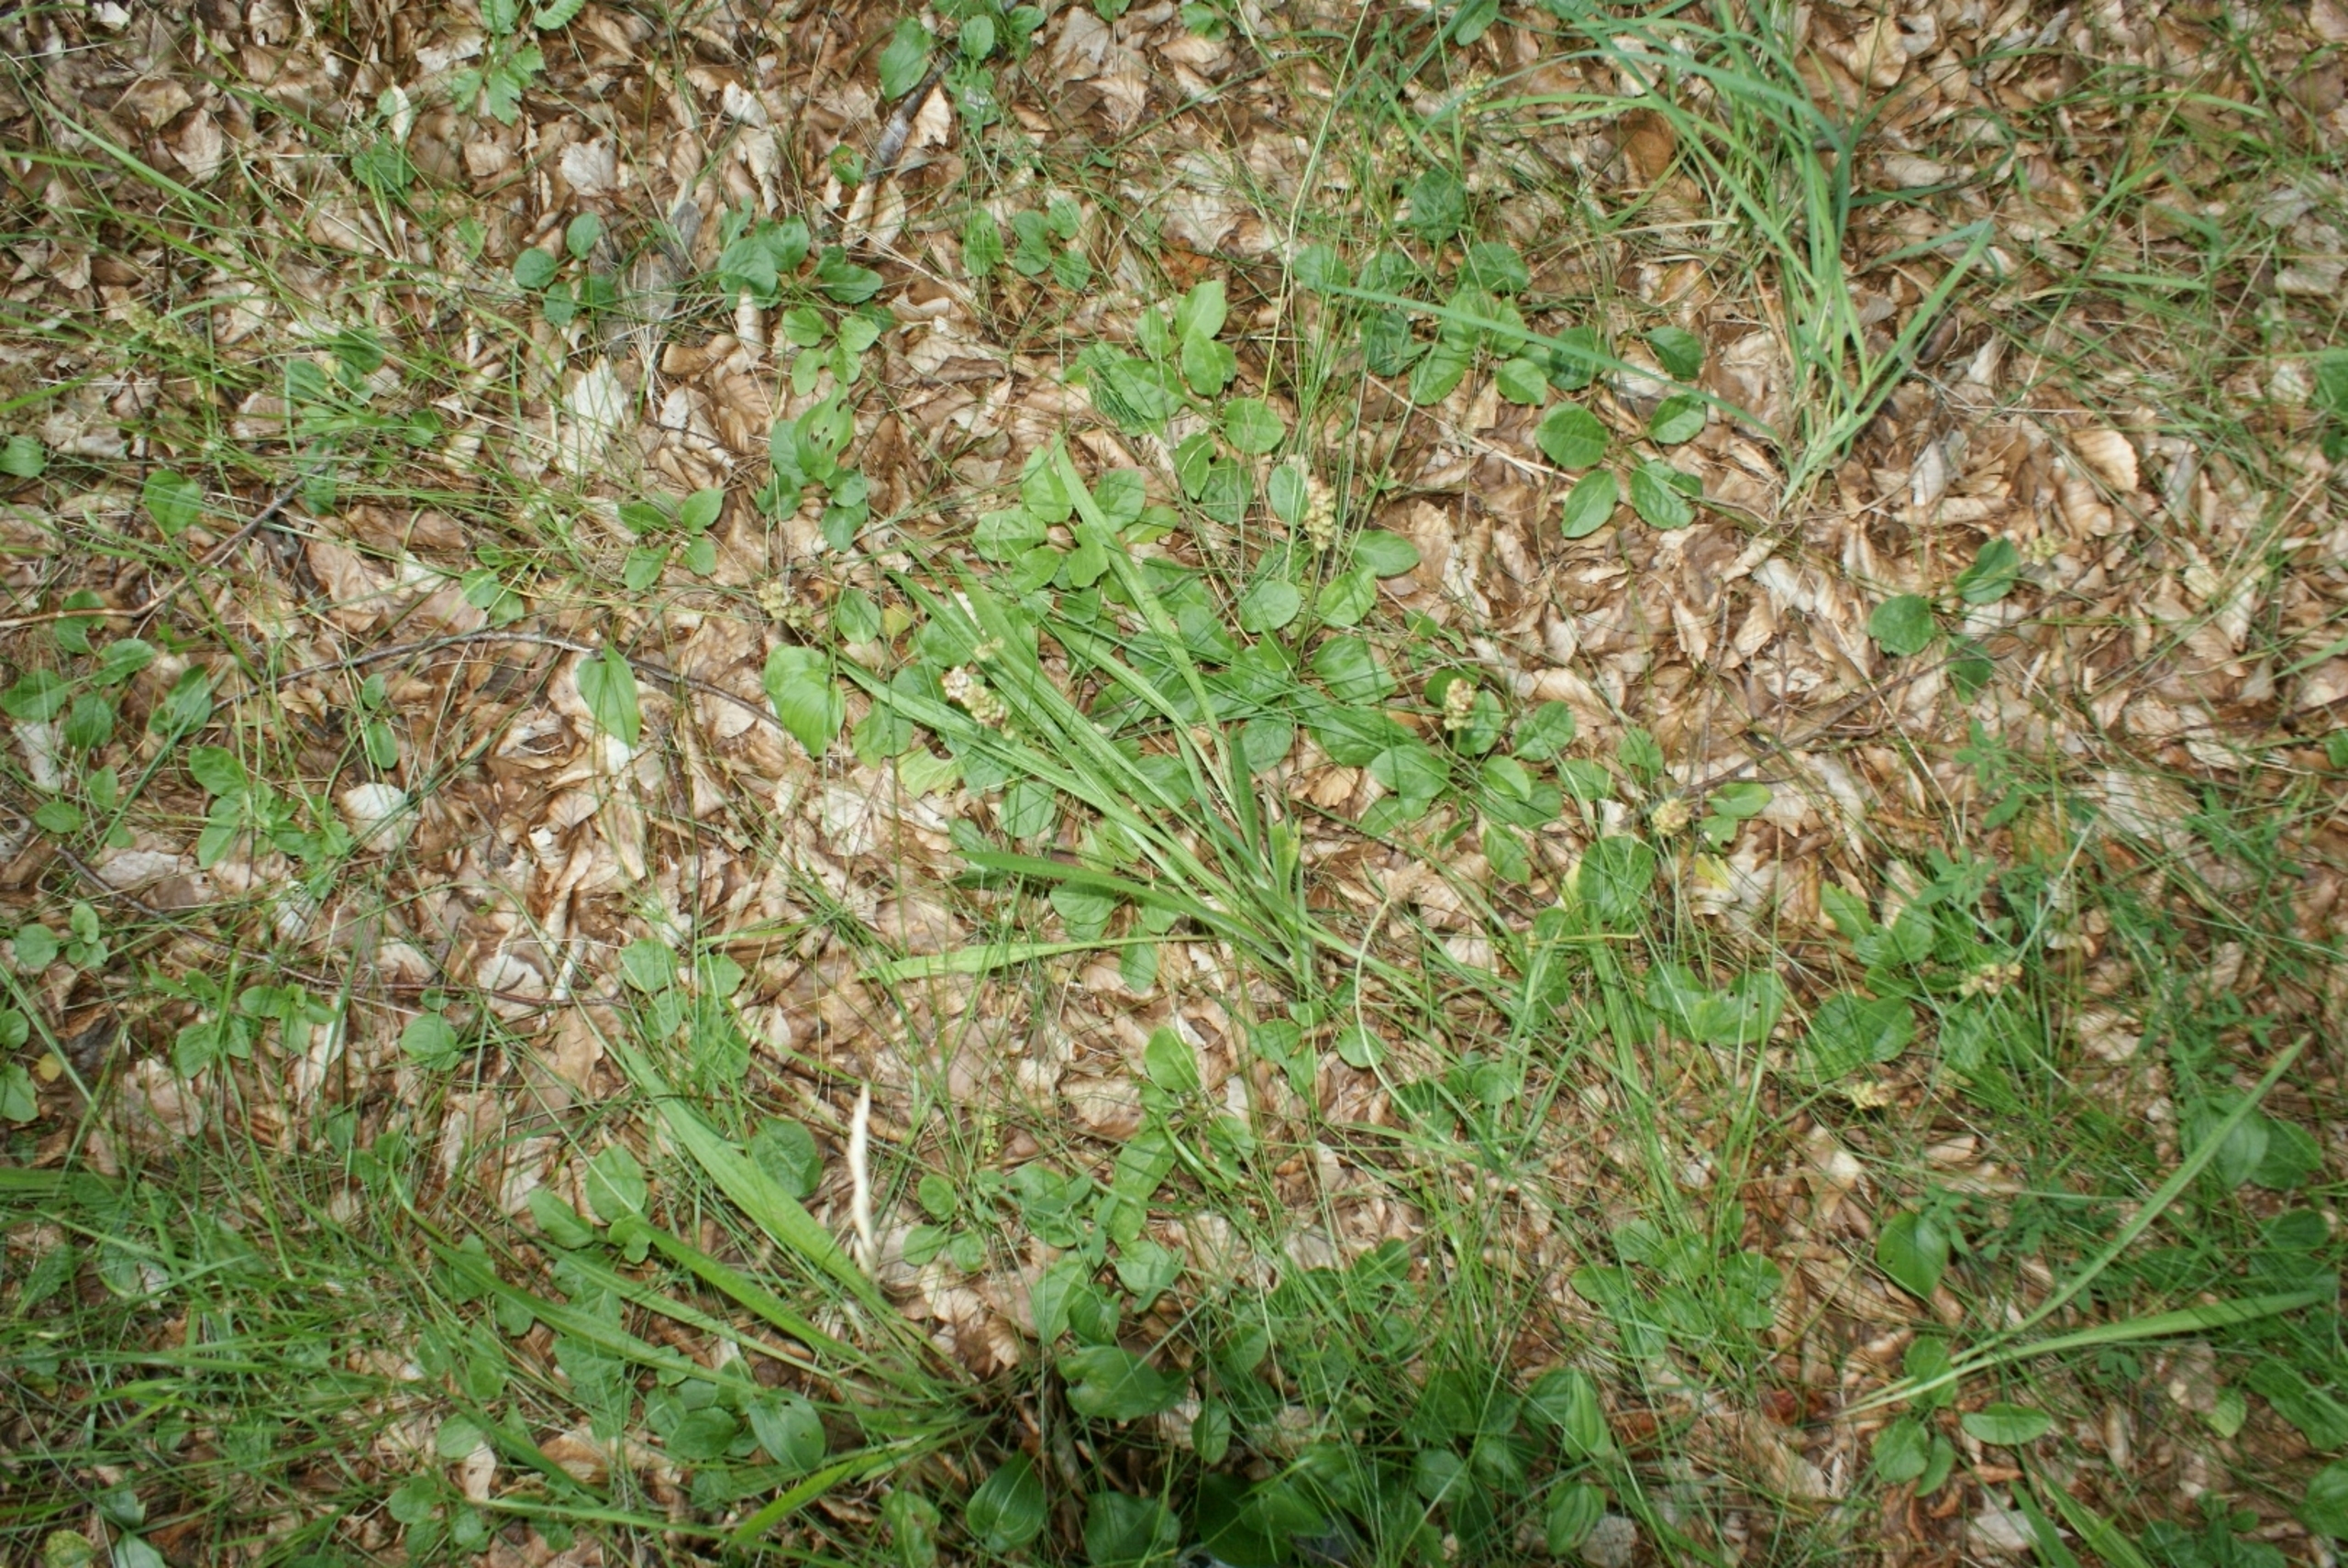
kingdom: Plantae
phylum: Tracheophyta
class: Magnoliopsida
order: Ericales
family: Ericaceae
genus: Pyrola
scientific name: Pyrola minor
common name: Liden vintergrøn
